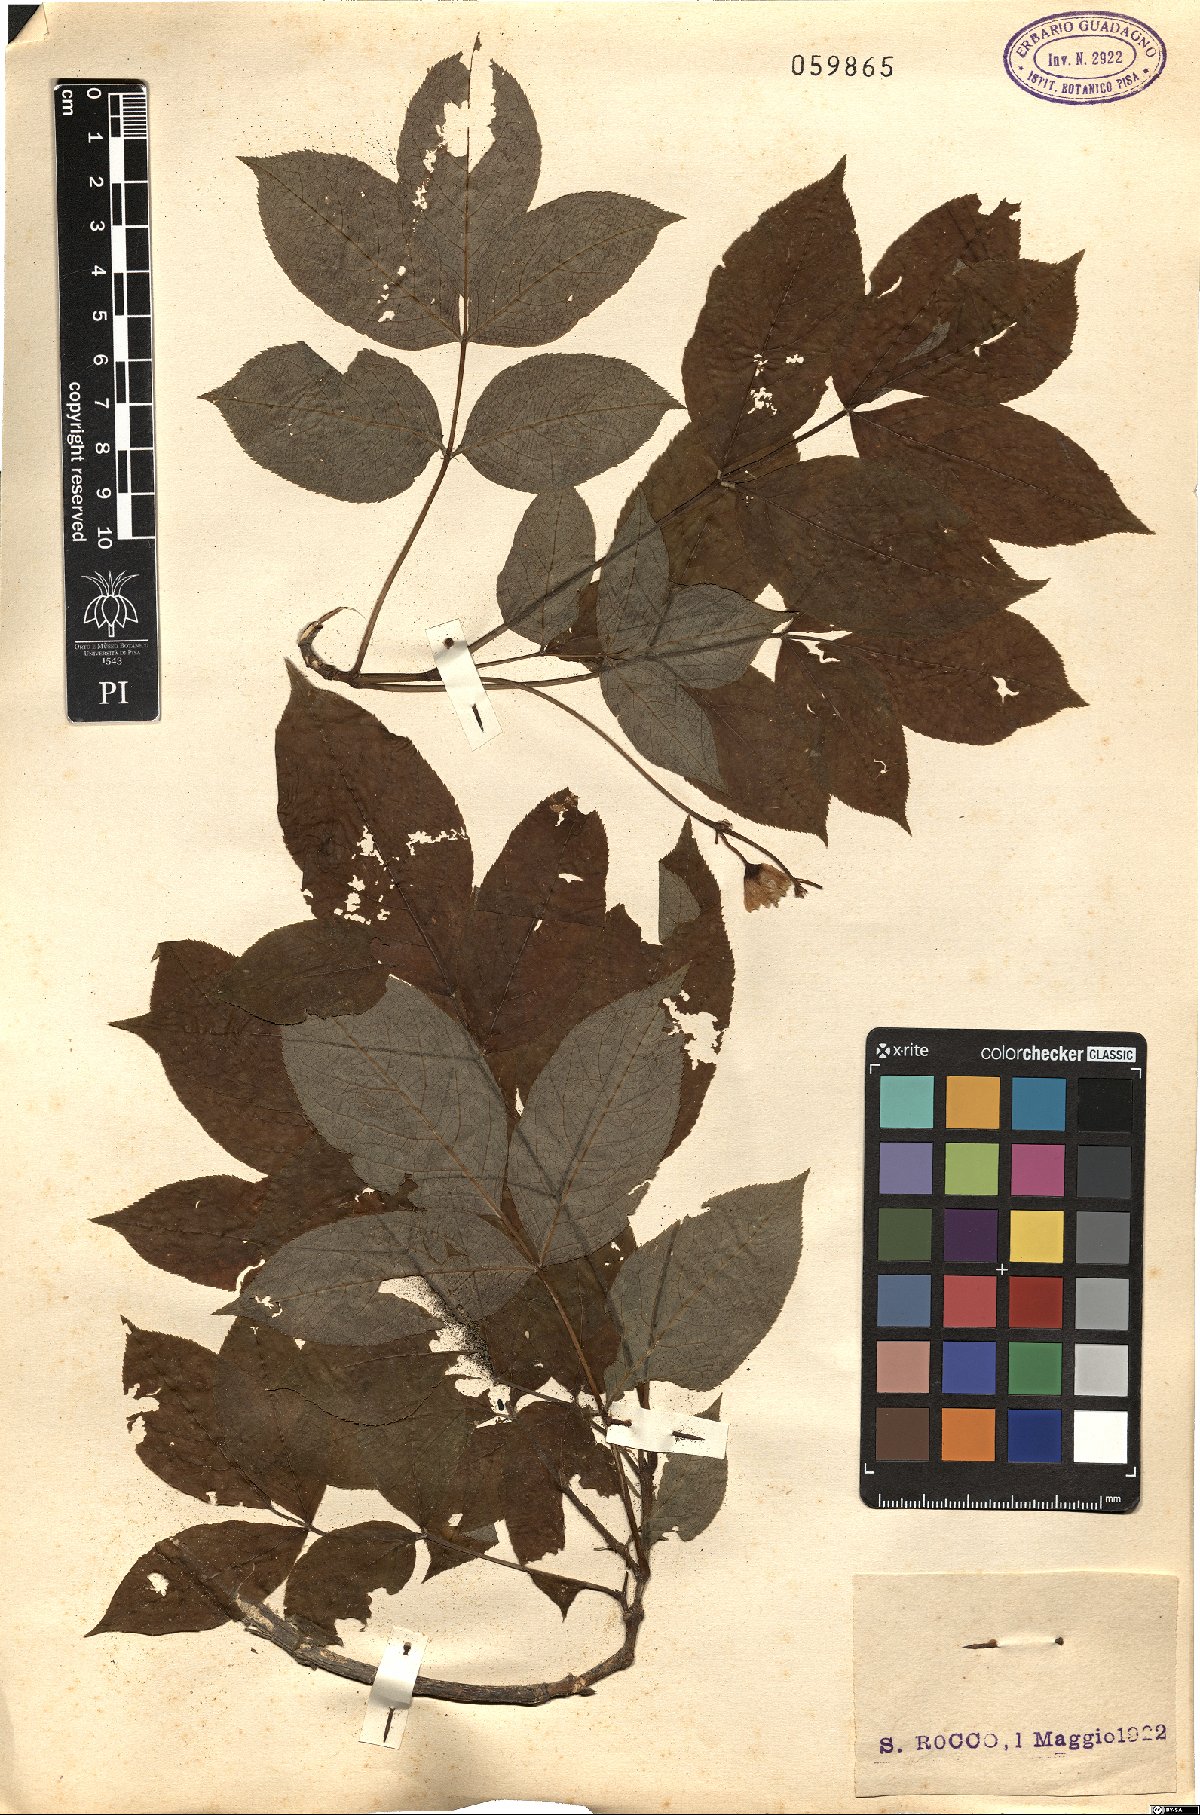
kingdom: Plantae
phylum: Tracheophyta
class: Magnoliopsida
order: Crossosomatales
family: Staphyleaceae
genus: Staphylea
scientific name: Staphylea pinnata
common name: Bladdernut
